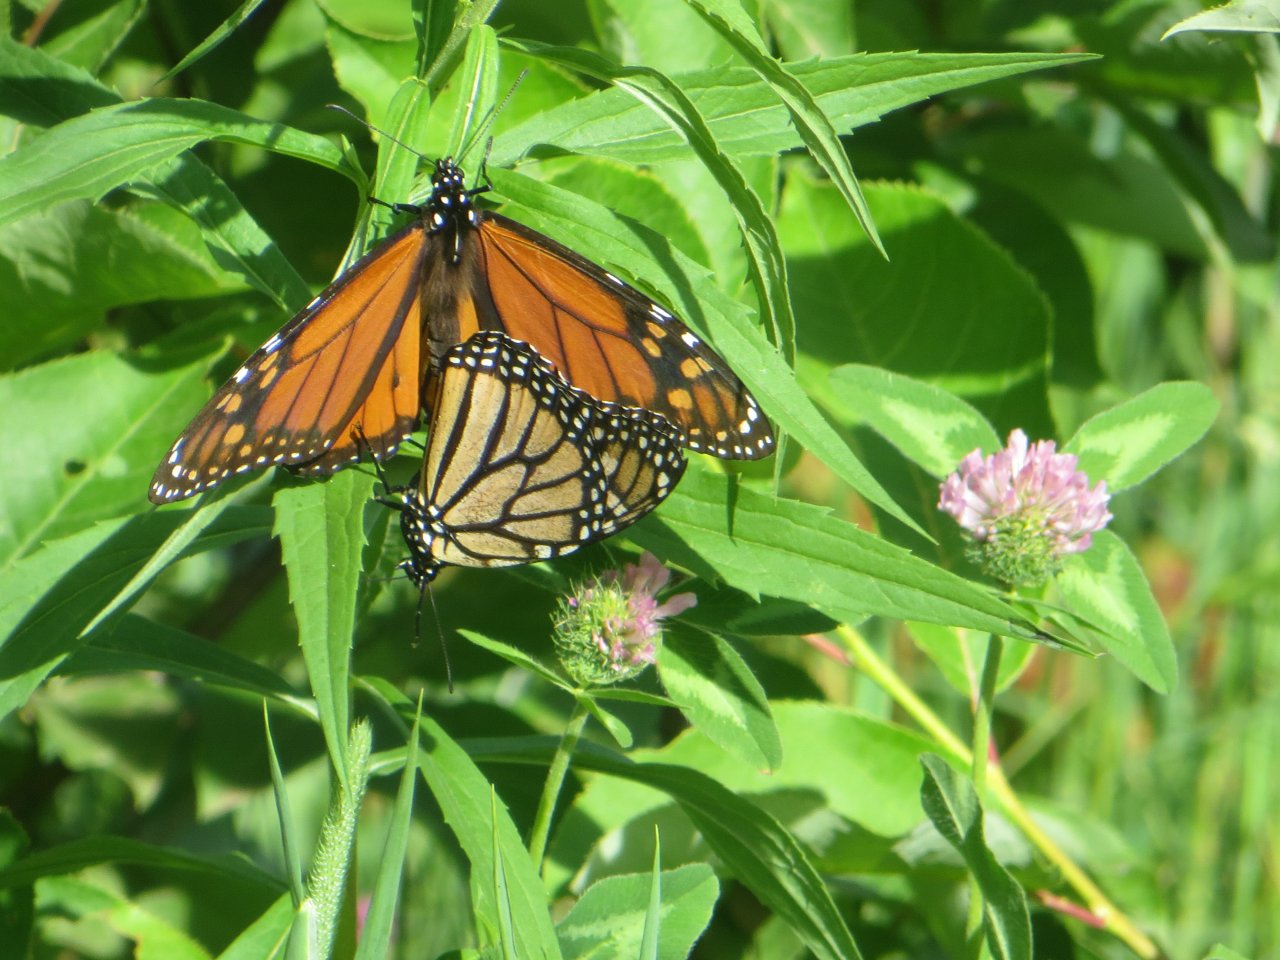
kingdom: Animalia
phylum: Arthropoda
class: Insecta
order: Lepidoptera
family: Nymphalidae
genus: Danaus
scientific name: Danaus plexippus
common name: Monarch
